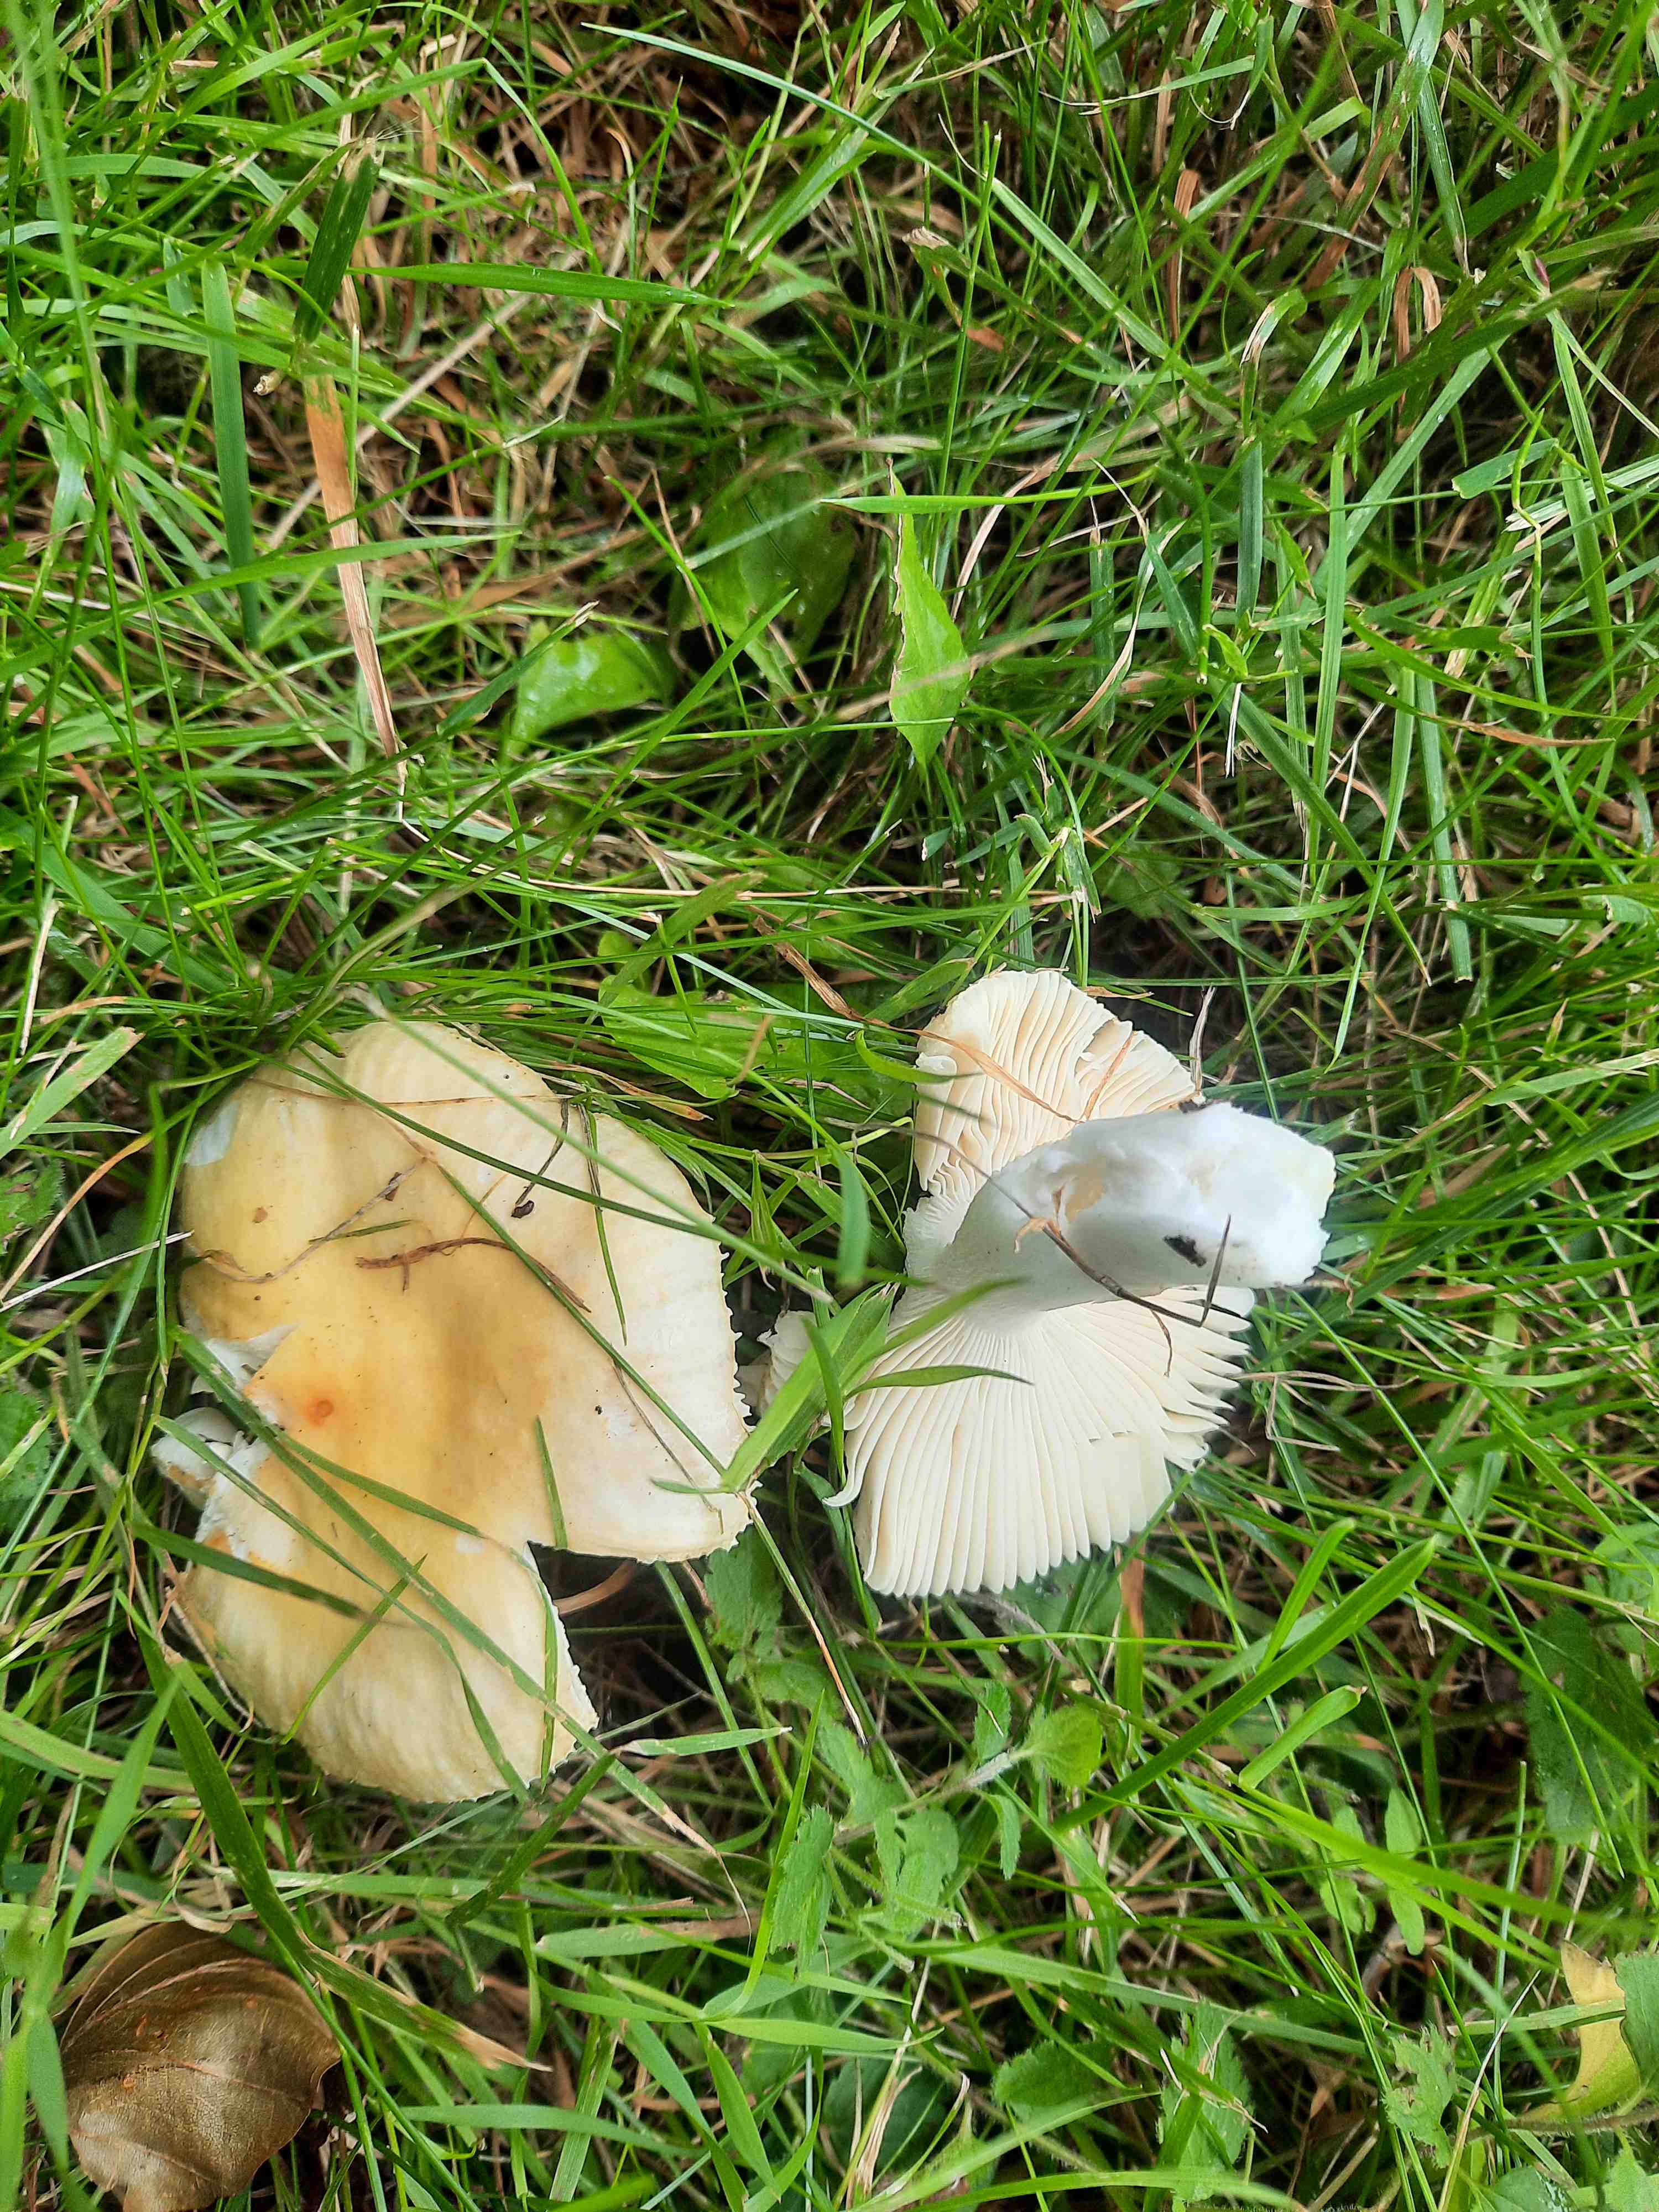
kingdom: Fungi
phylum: Basidiomycota
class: Agaricomycetes
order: Russulales
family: Russulaceae
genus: Russula
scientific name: Russula
